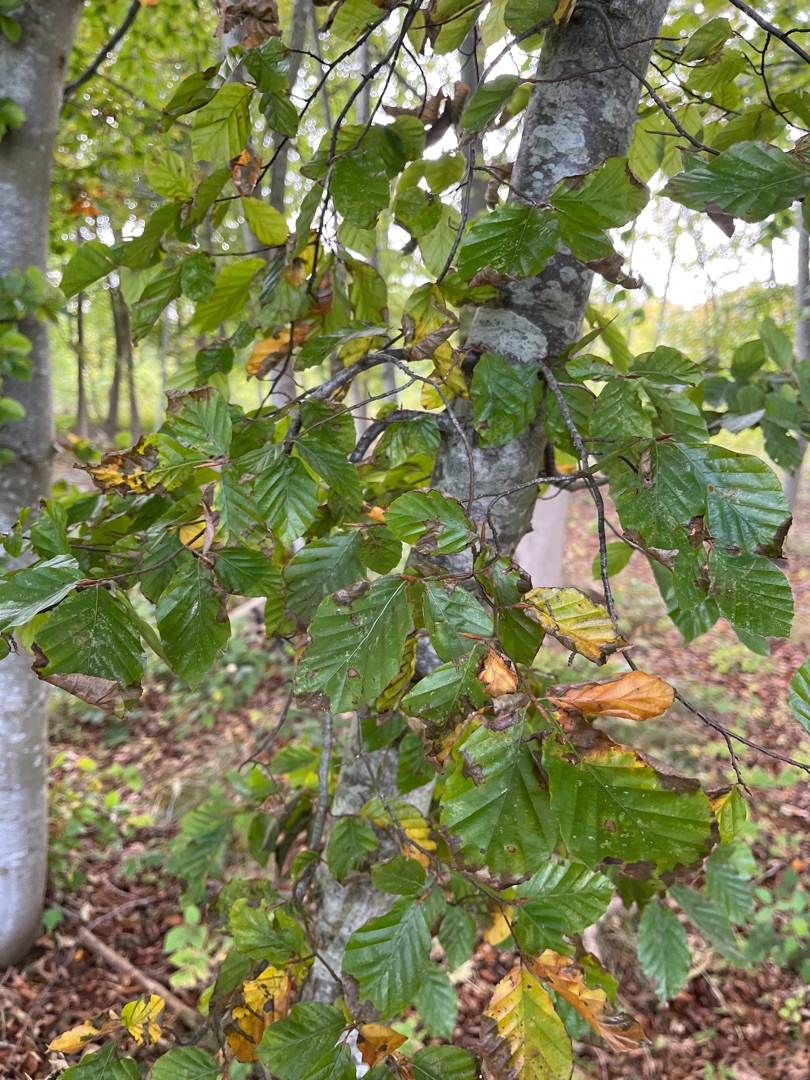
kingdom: Plantae
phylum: Tracheophyta
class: Magnoliopsida
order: Fagales
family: Fagaceae
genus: Fagus
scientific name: Fagus sylvatica
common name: Bøg
